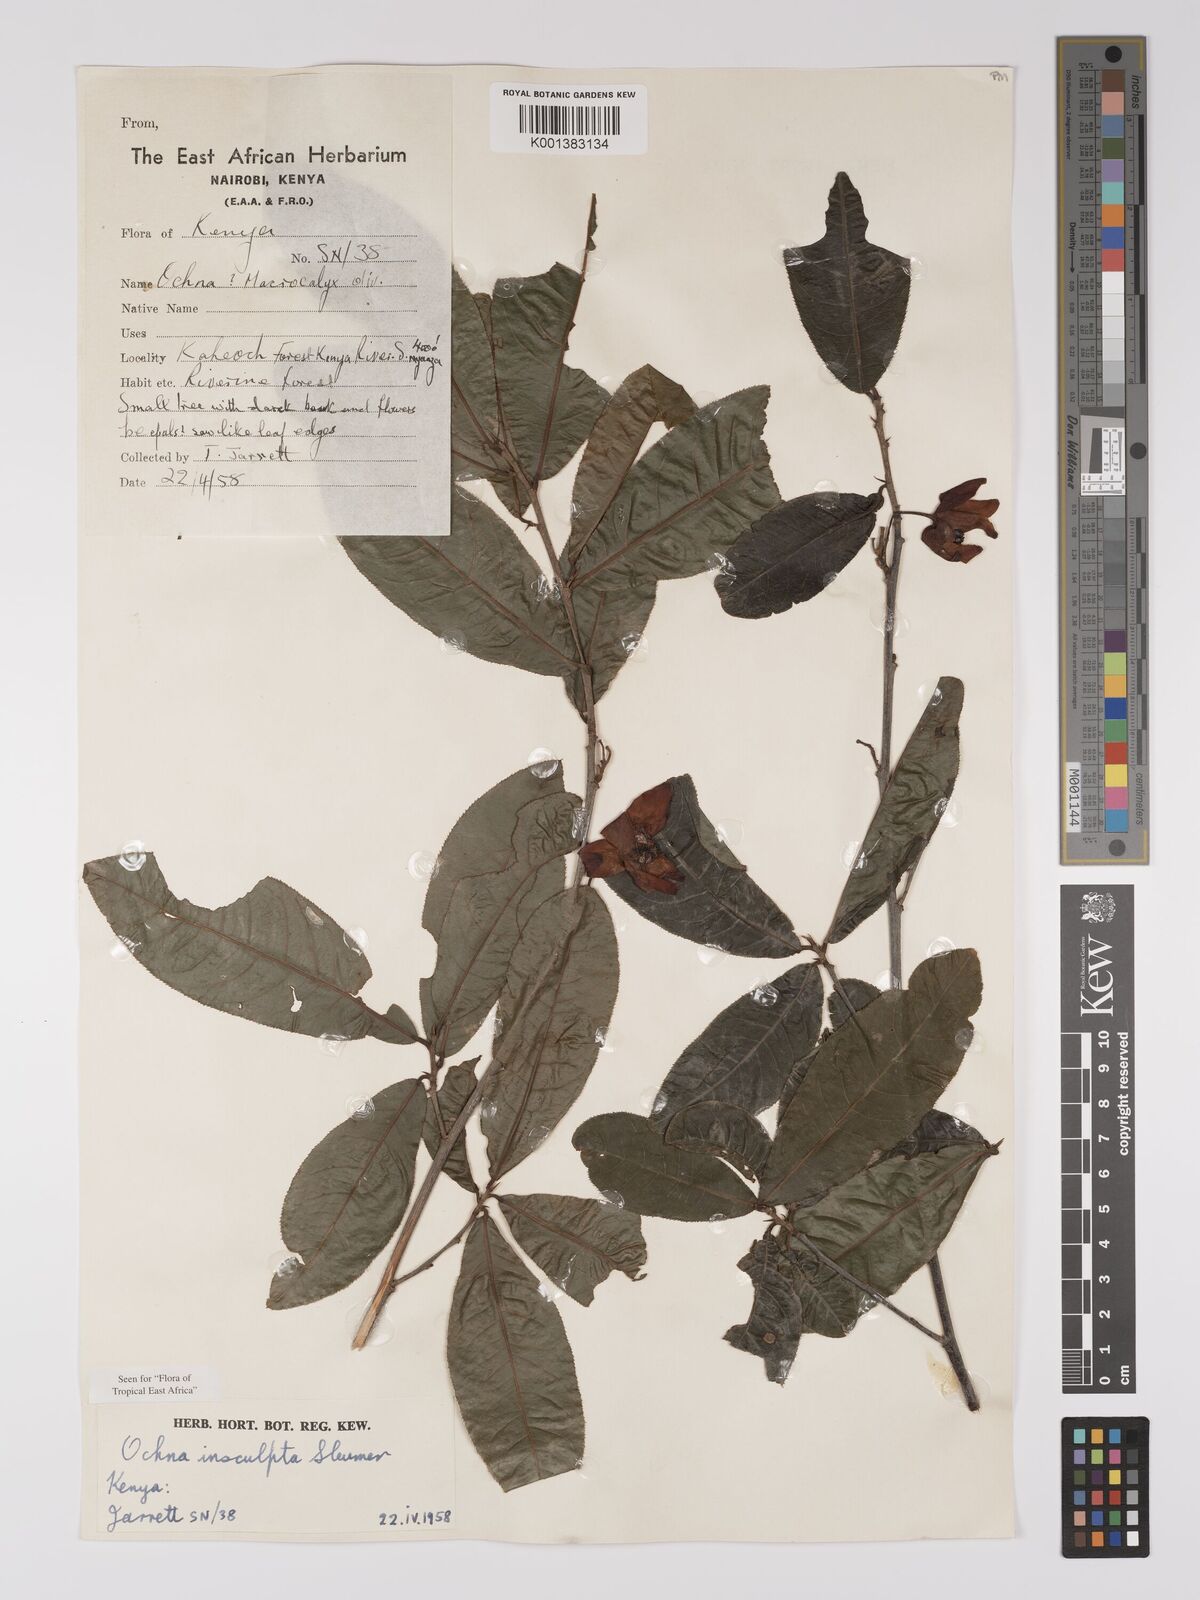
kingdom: Plantae
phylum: Tracheophyta
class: Magnoliopsida
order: Malpighiales
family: Ochnaceae
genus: Ochna
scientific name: Ochna insculpta
